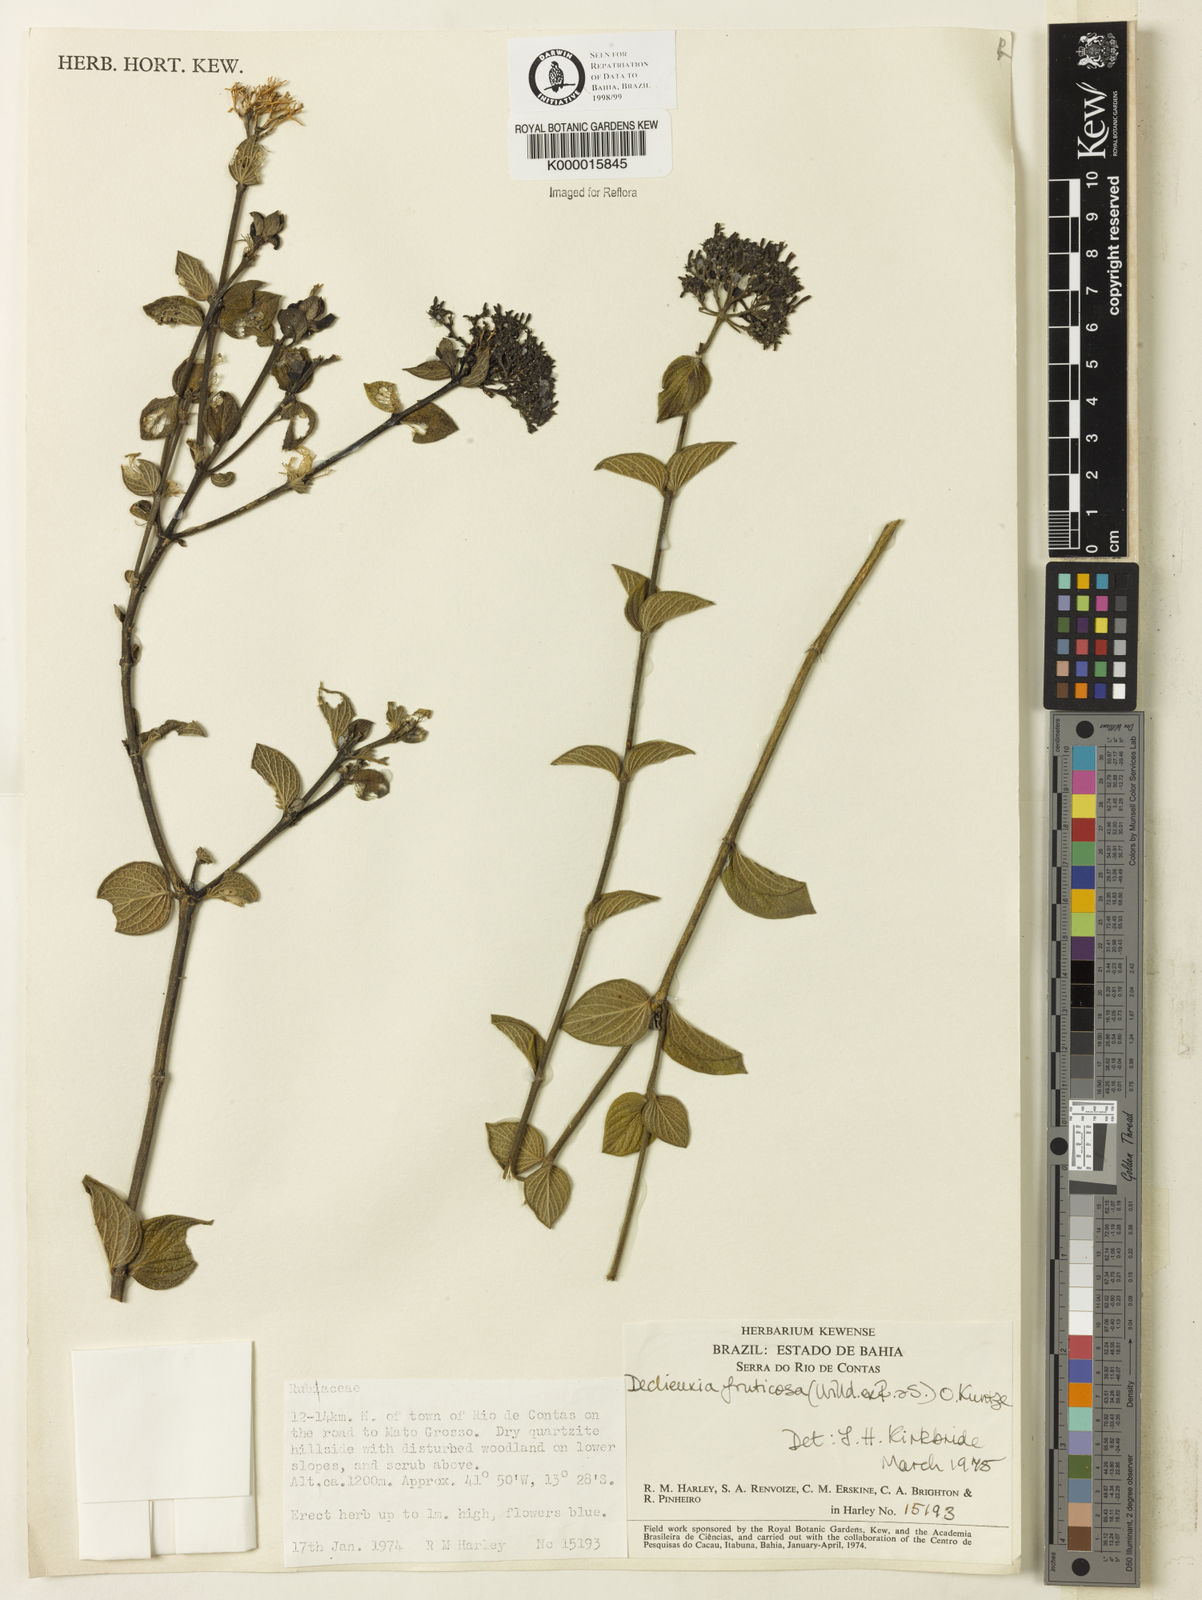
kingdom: Plantae
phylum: Tracheophyta
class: Magnoliopsida
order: Gentianales
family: Rubiaceae
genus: Declieuxia
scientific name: Declieuxia fruticosa
